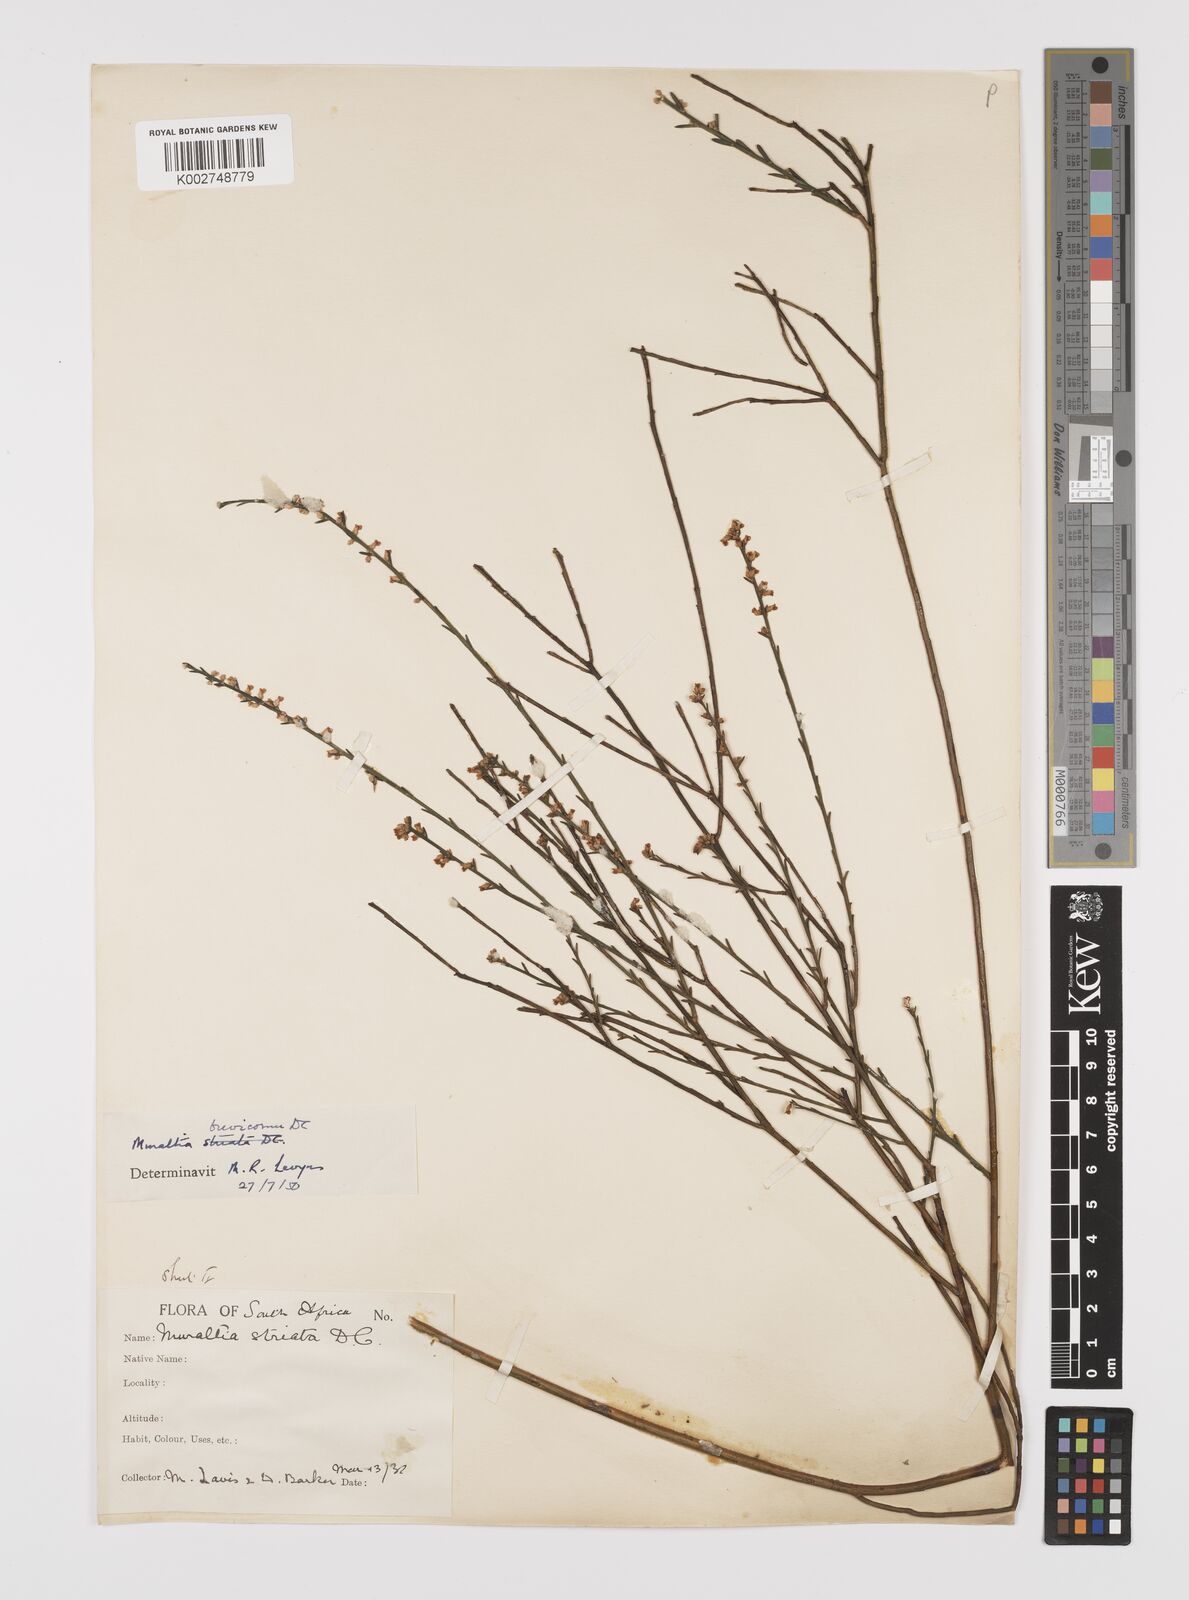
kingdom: Plantae
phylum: Tracheophyta
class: Magnoliopsida
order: Fabales
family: Polygalaceae
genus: Muraltia
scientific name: Muraltia striata
